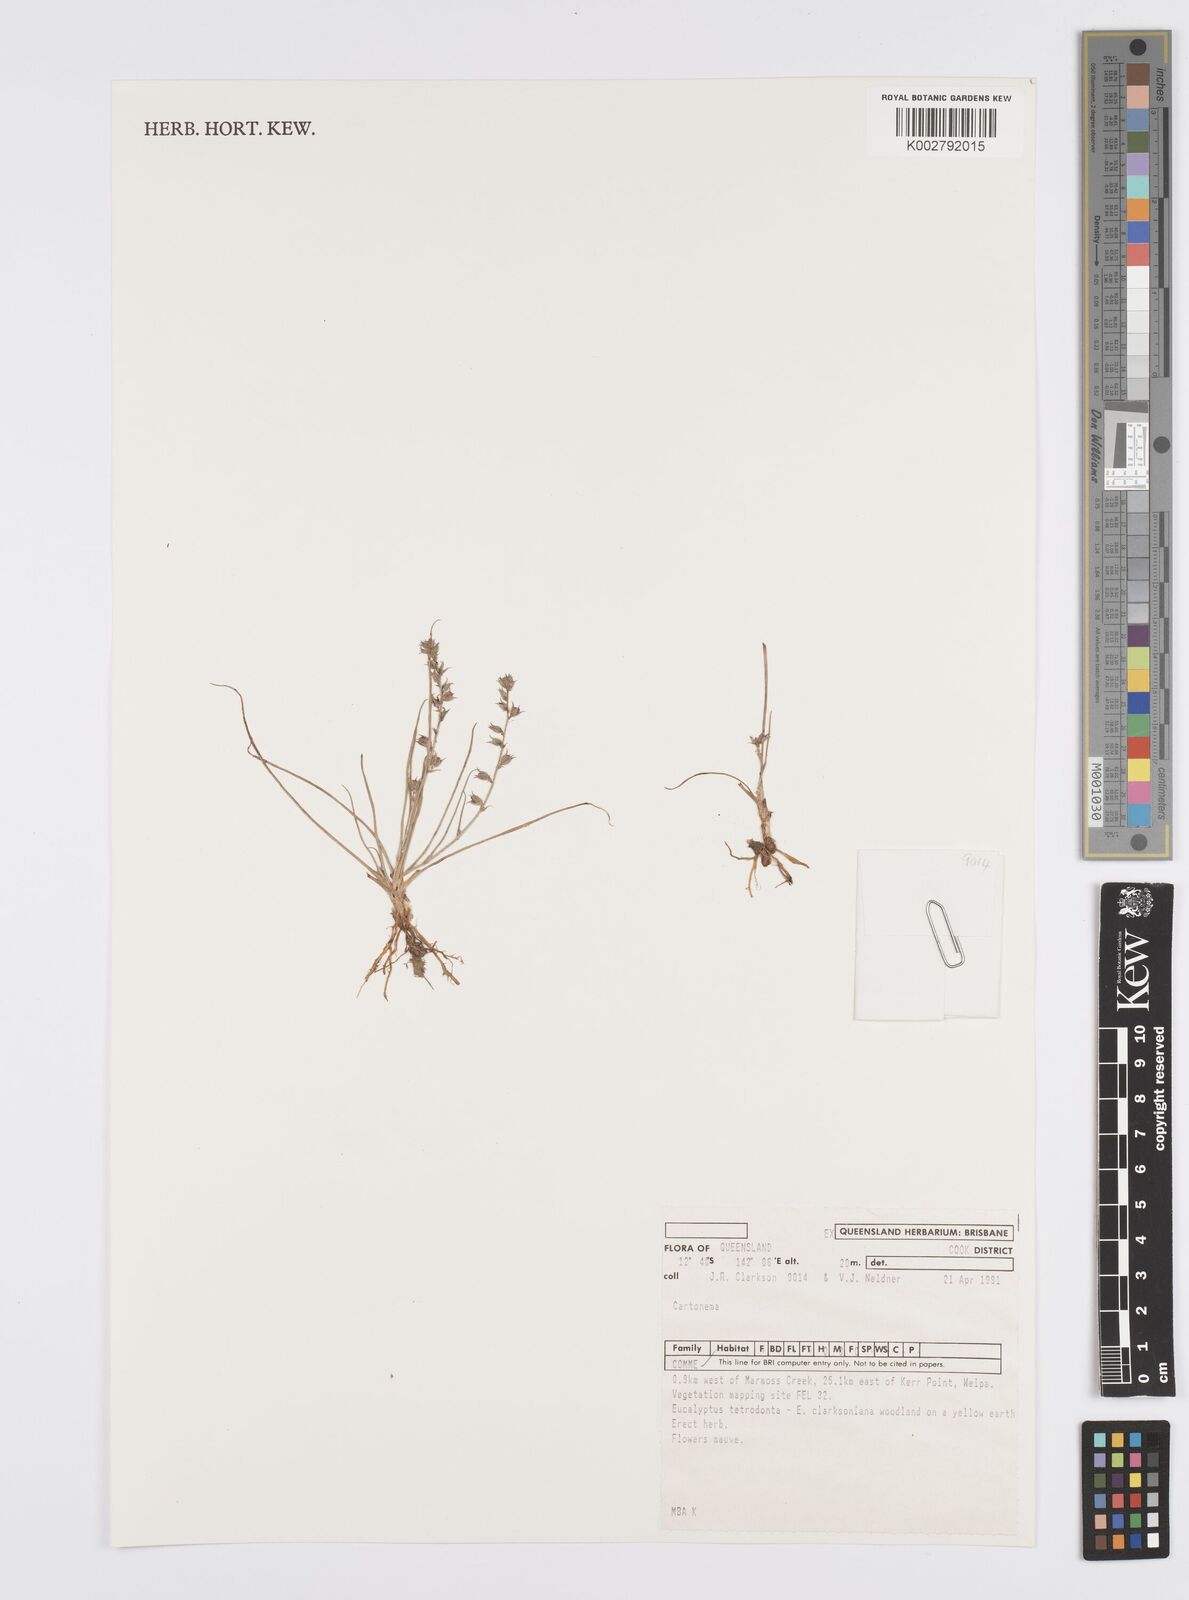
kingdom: Plantae
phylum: Tracheophyta
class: Liliopsida
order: Commelinales
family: Commelinaceae
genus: Cartonema
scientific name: Cartonema
